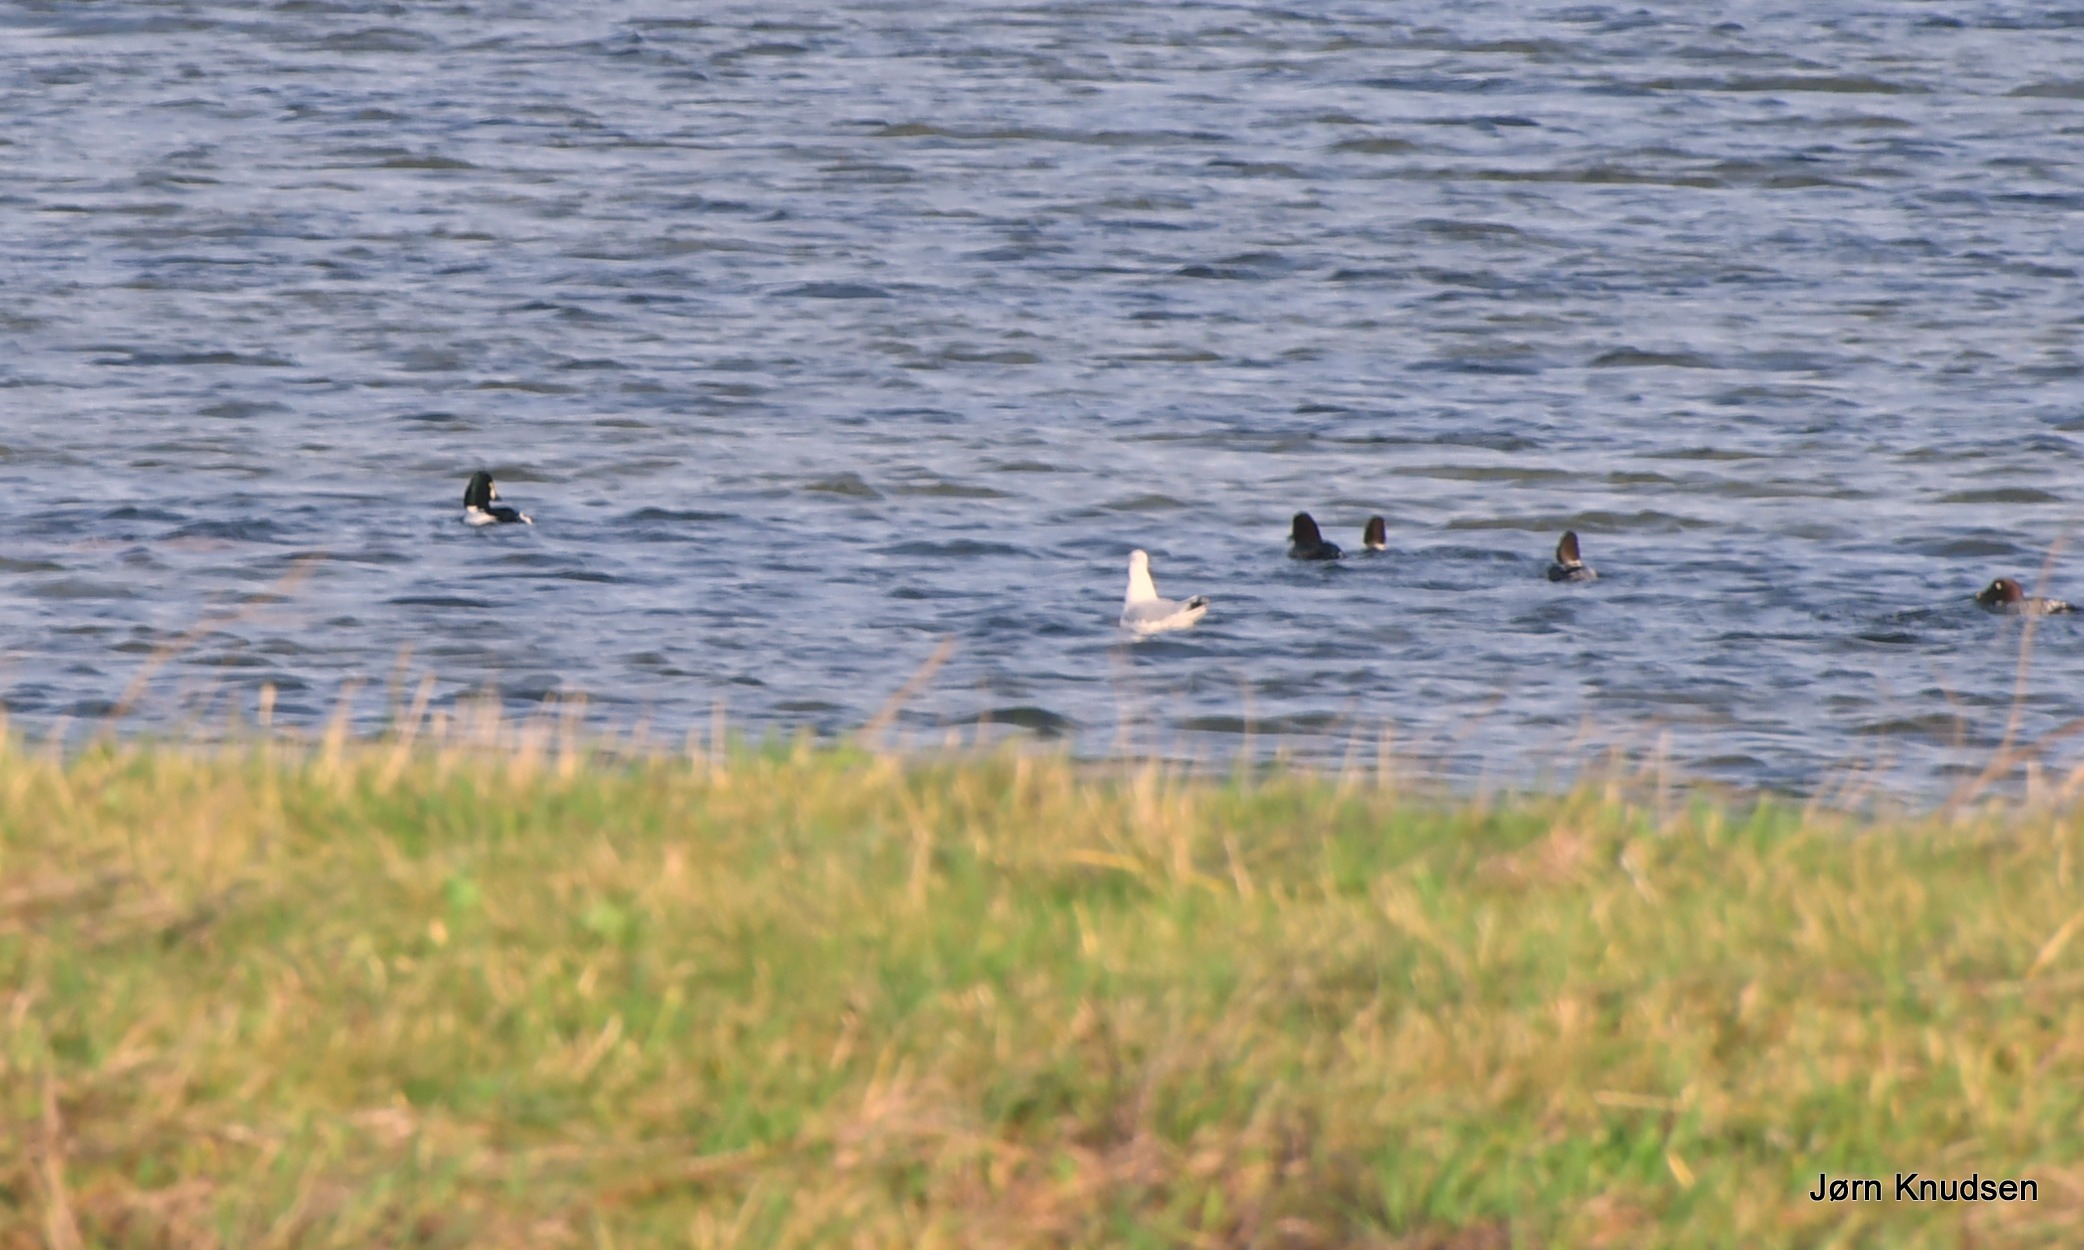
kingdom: Animalia
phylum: Chordata
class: Aves
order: Anseriformes
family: Anatidae
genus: Bucephala
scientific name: Bucephala clangula
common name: Hvinand
